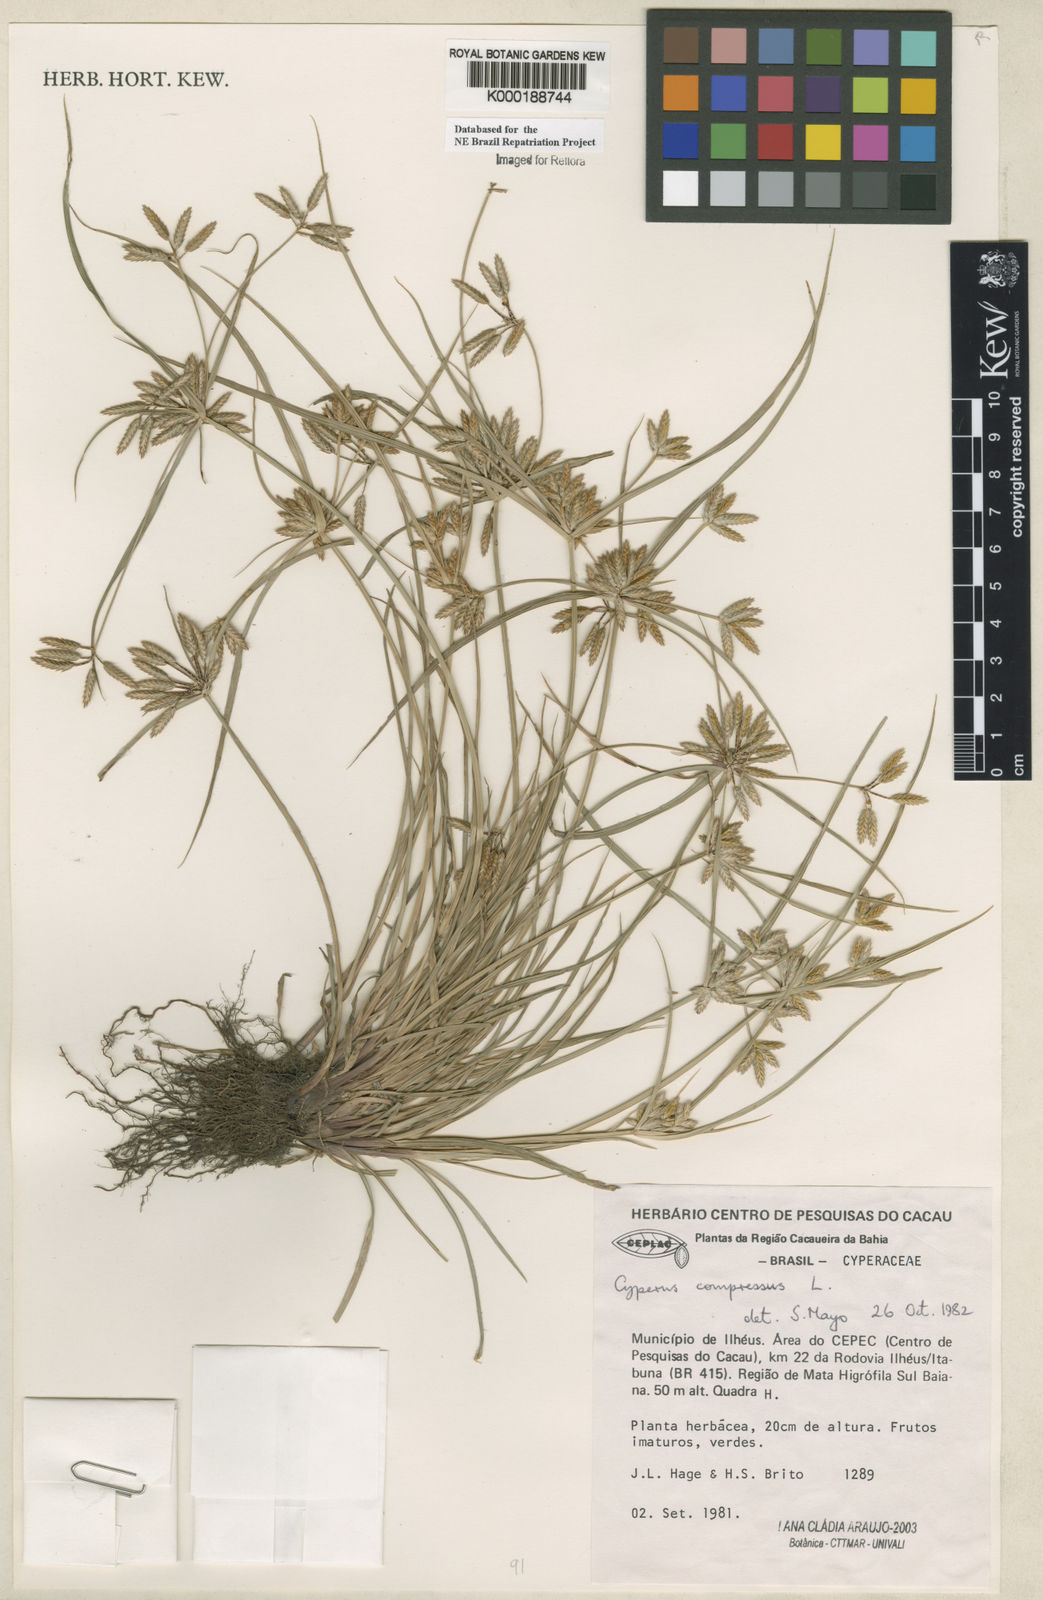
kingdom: Plantae
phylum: Tracheophyta
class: Liliopsida
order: Poales
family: Cyperaceae
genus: Cyperus
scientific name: Cyperus compressus
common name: Poorland flatsedge
